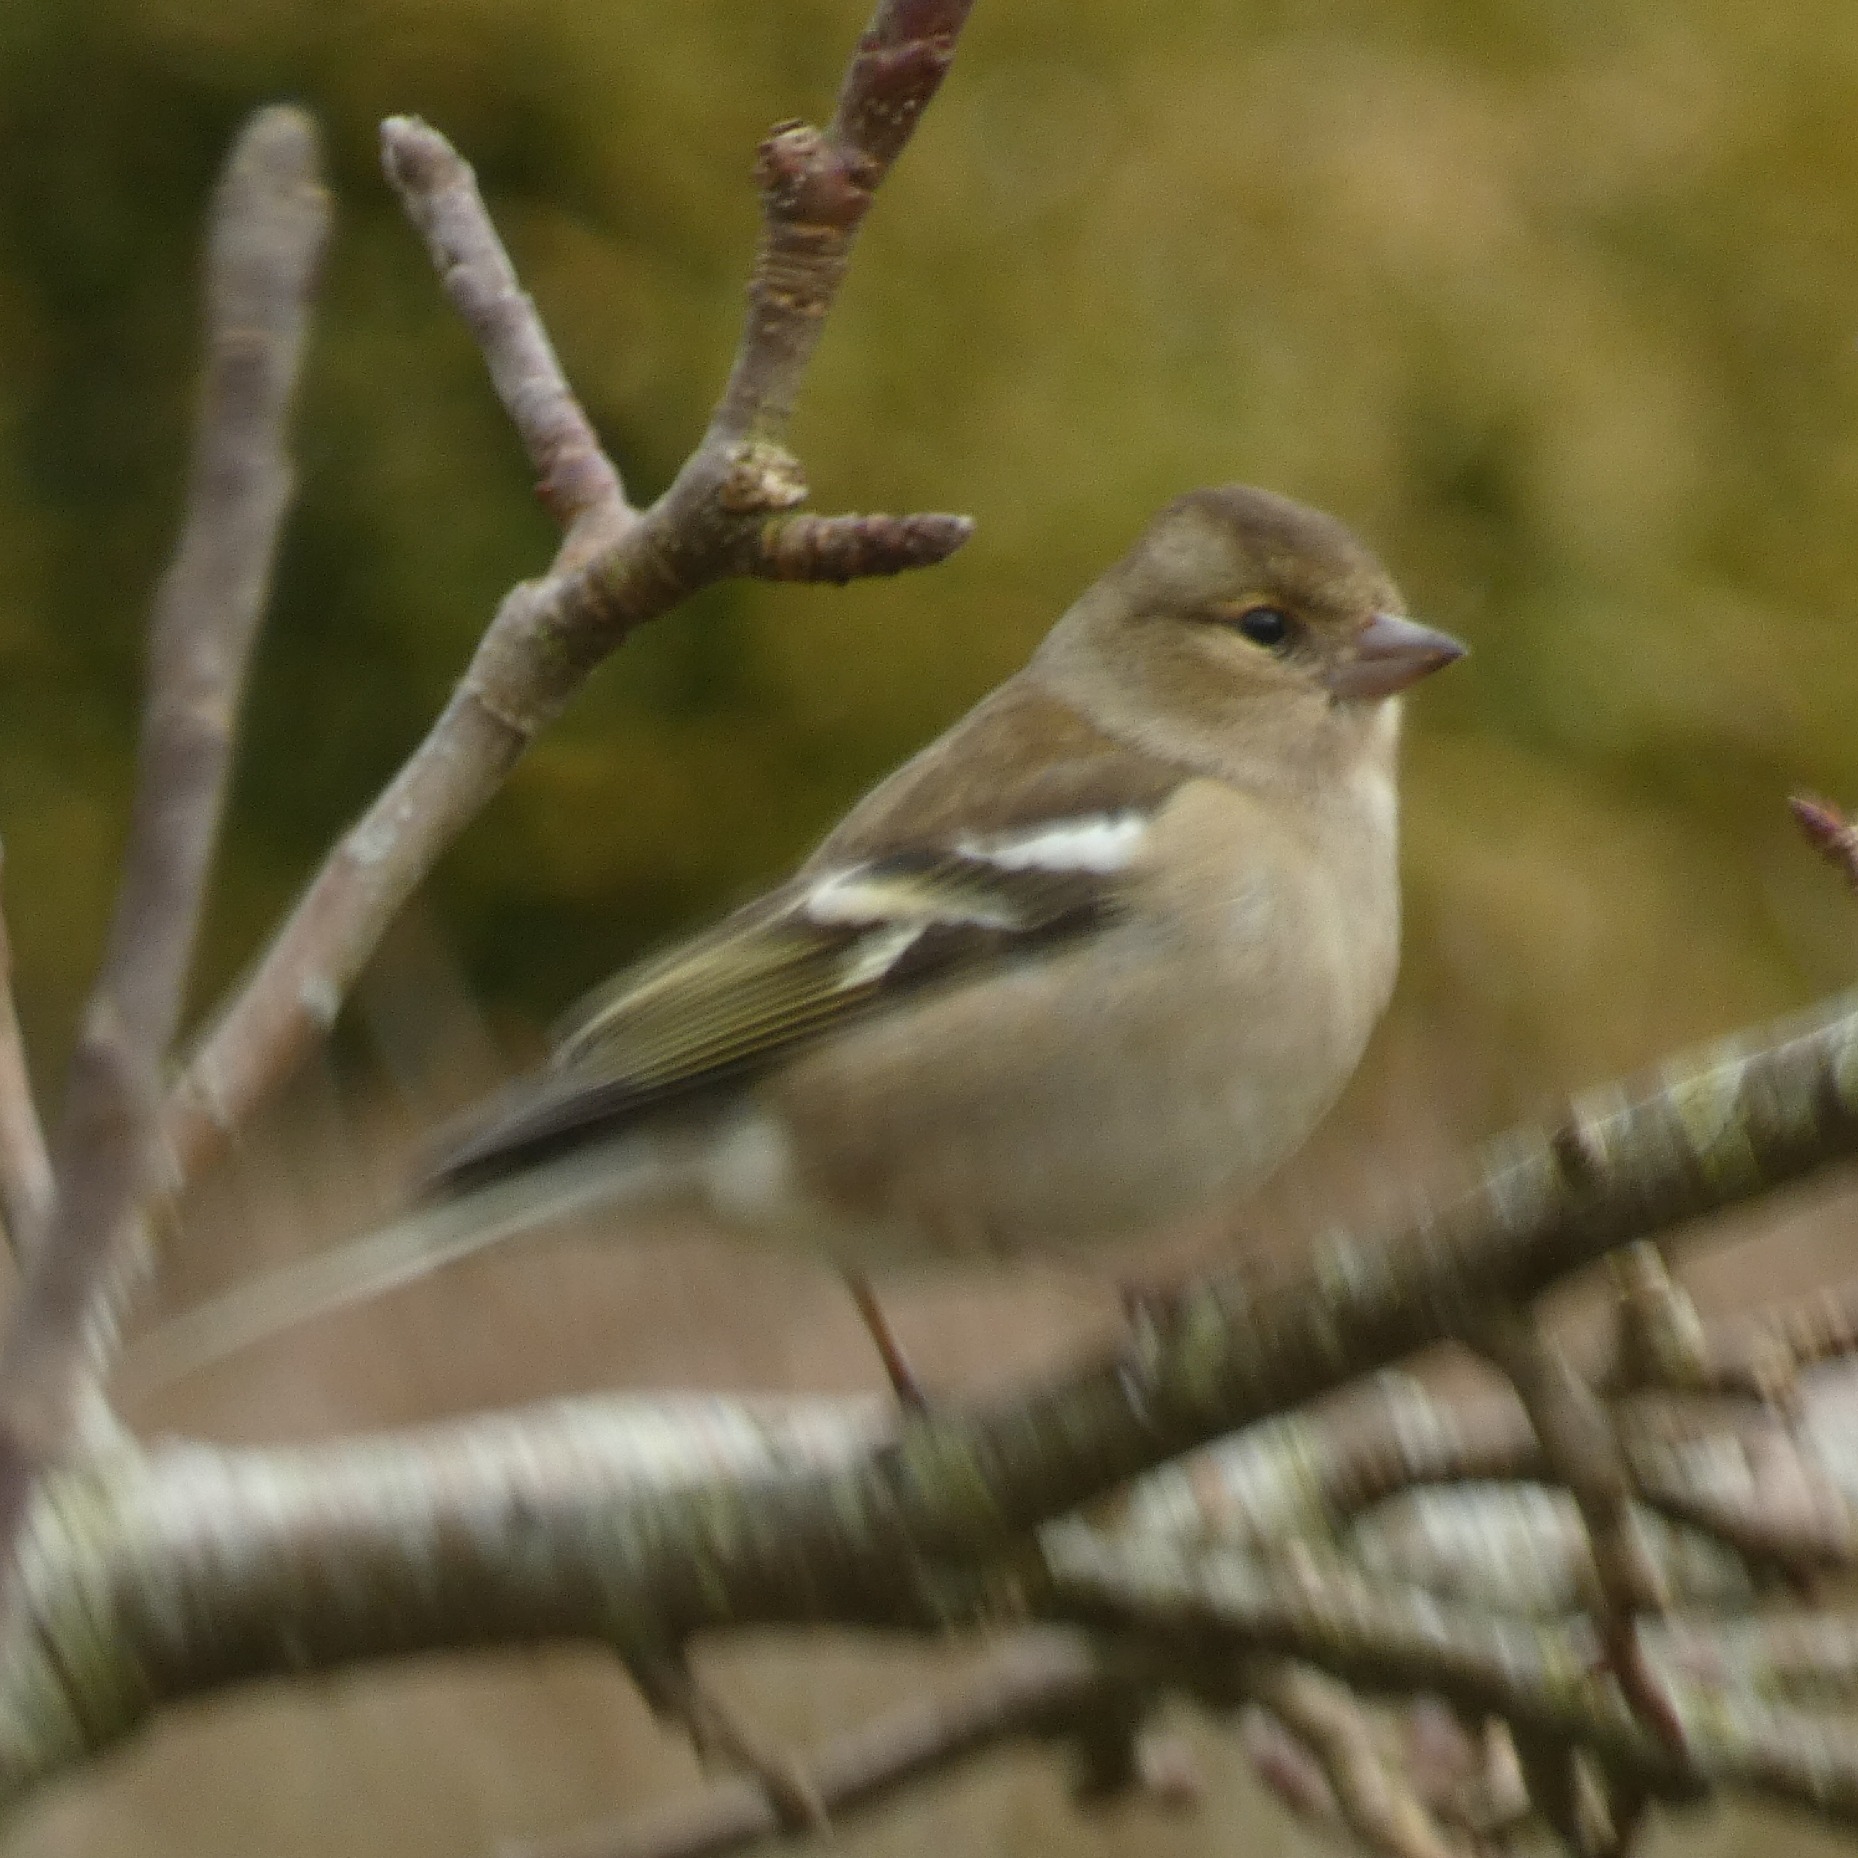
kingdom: Animalia
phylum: Chordata
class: Aves
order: Passeriformes
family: Fringillidae
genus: Fringilla
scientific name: Fringilla coelebs
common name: Bogfinke
